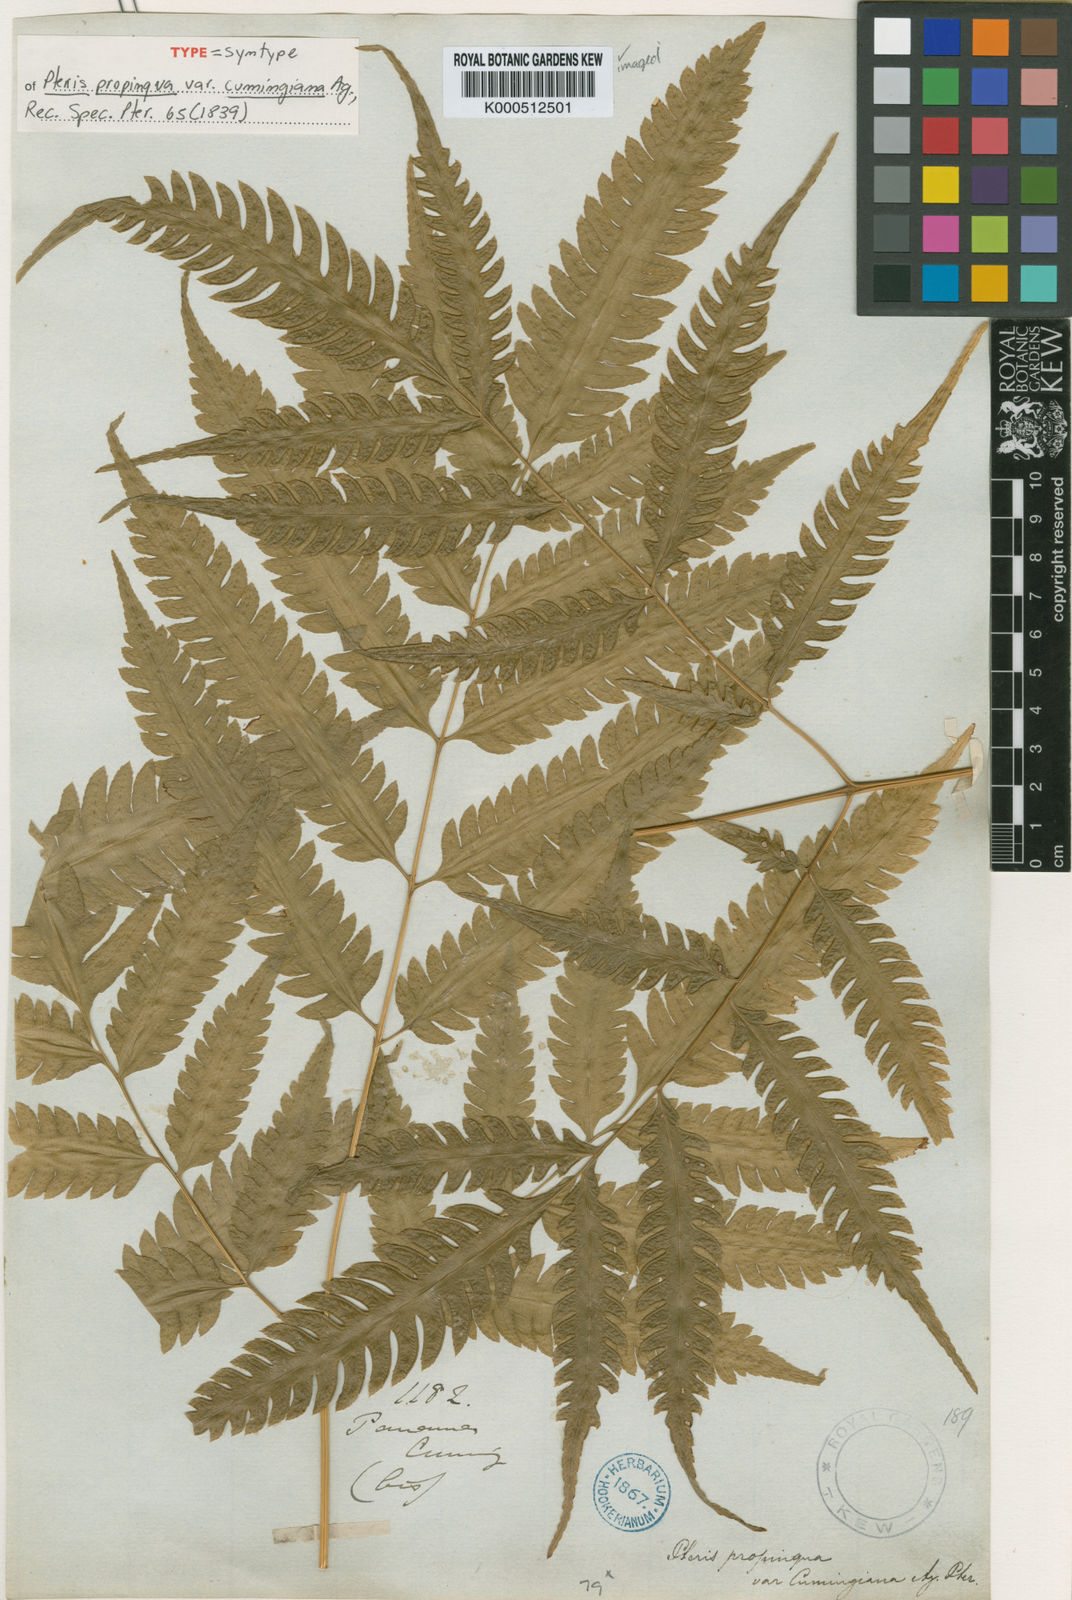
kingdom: Plantae
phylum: Tracheophyta
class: Polypodiopsida
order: Polypodiales
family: Pteridaceae
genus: Pteris
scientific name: Pteris propinqua
